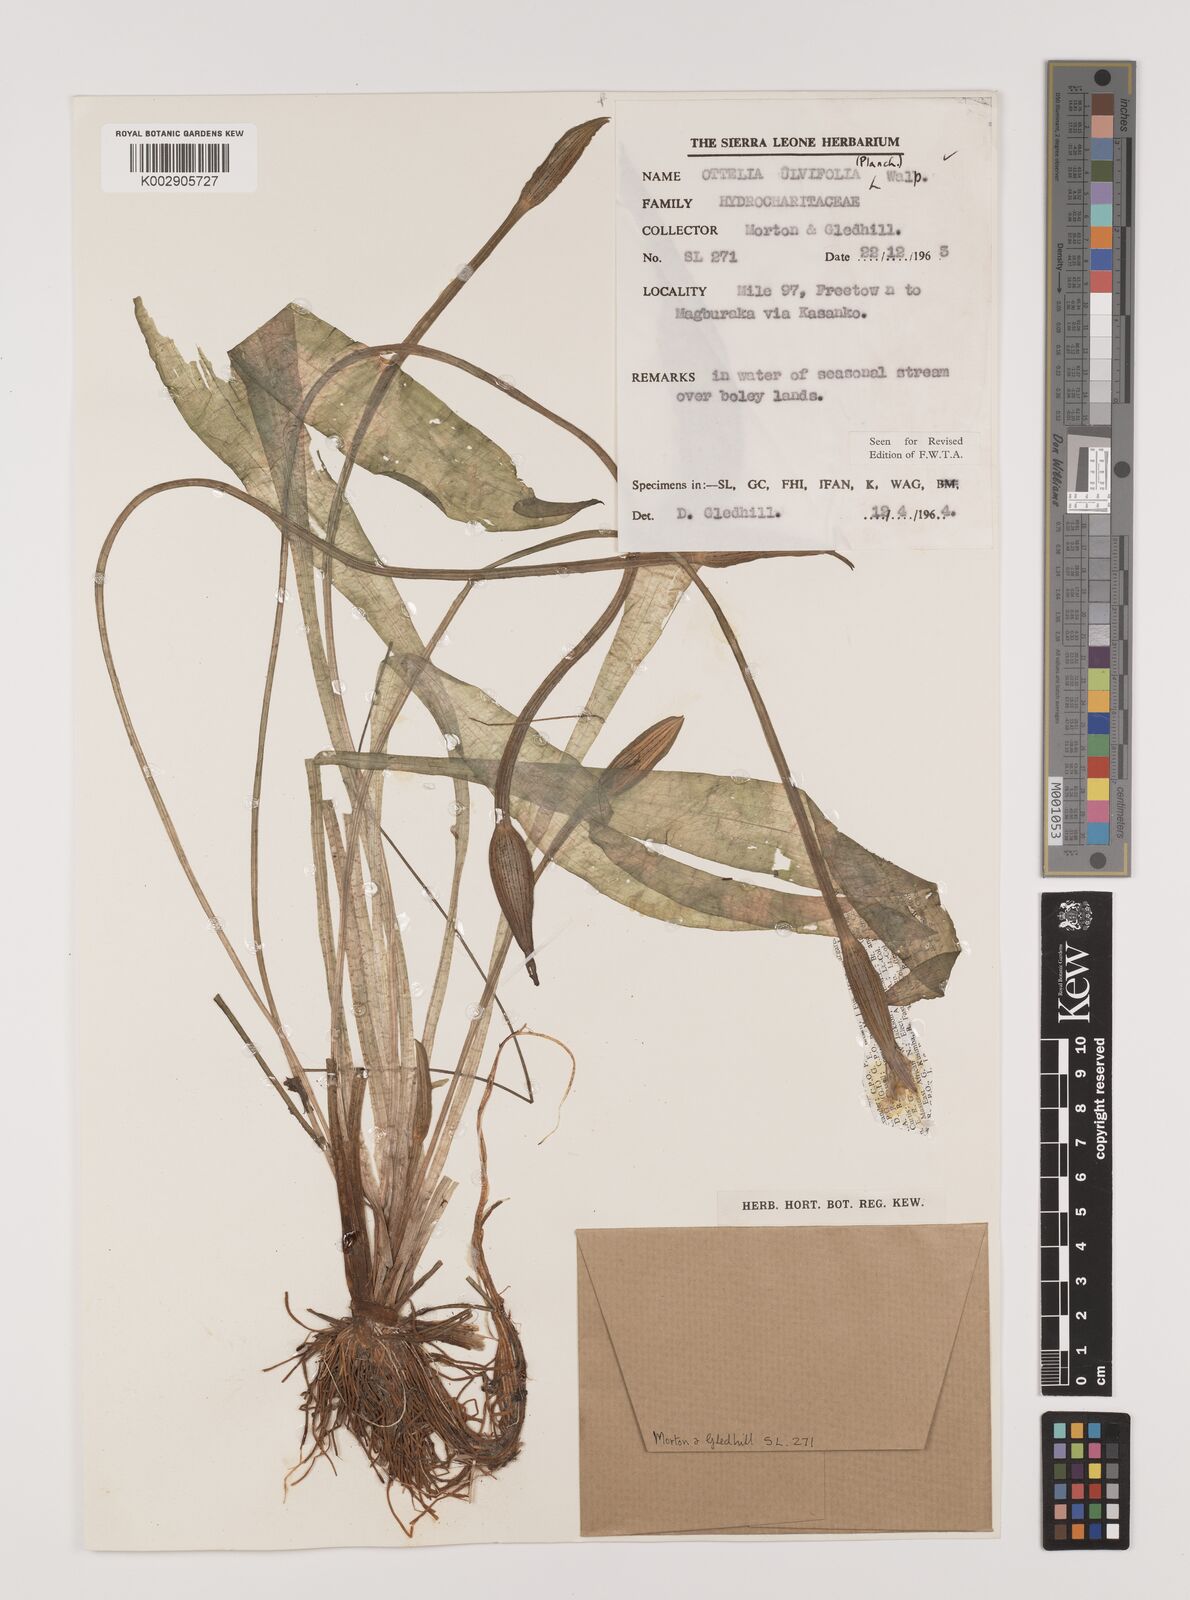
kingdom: Plantae
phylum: Tracheophyta
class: Liliopsida
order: Alismatales
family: Hydrocharitaceae
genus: Ottelia
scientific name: Ottelia ulvifolia
